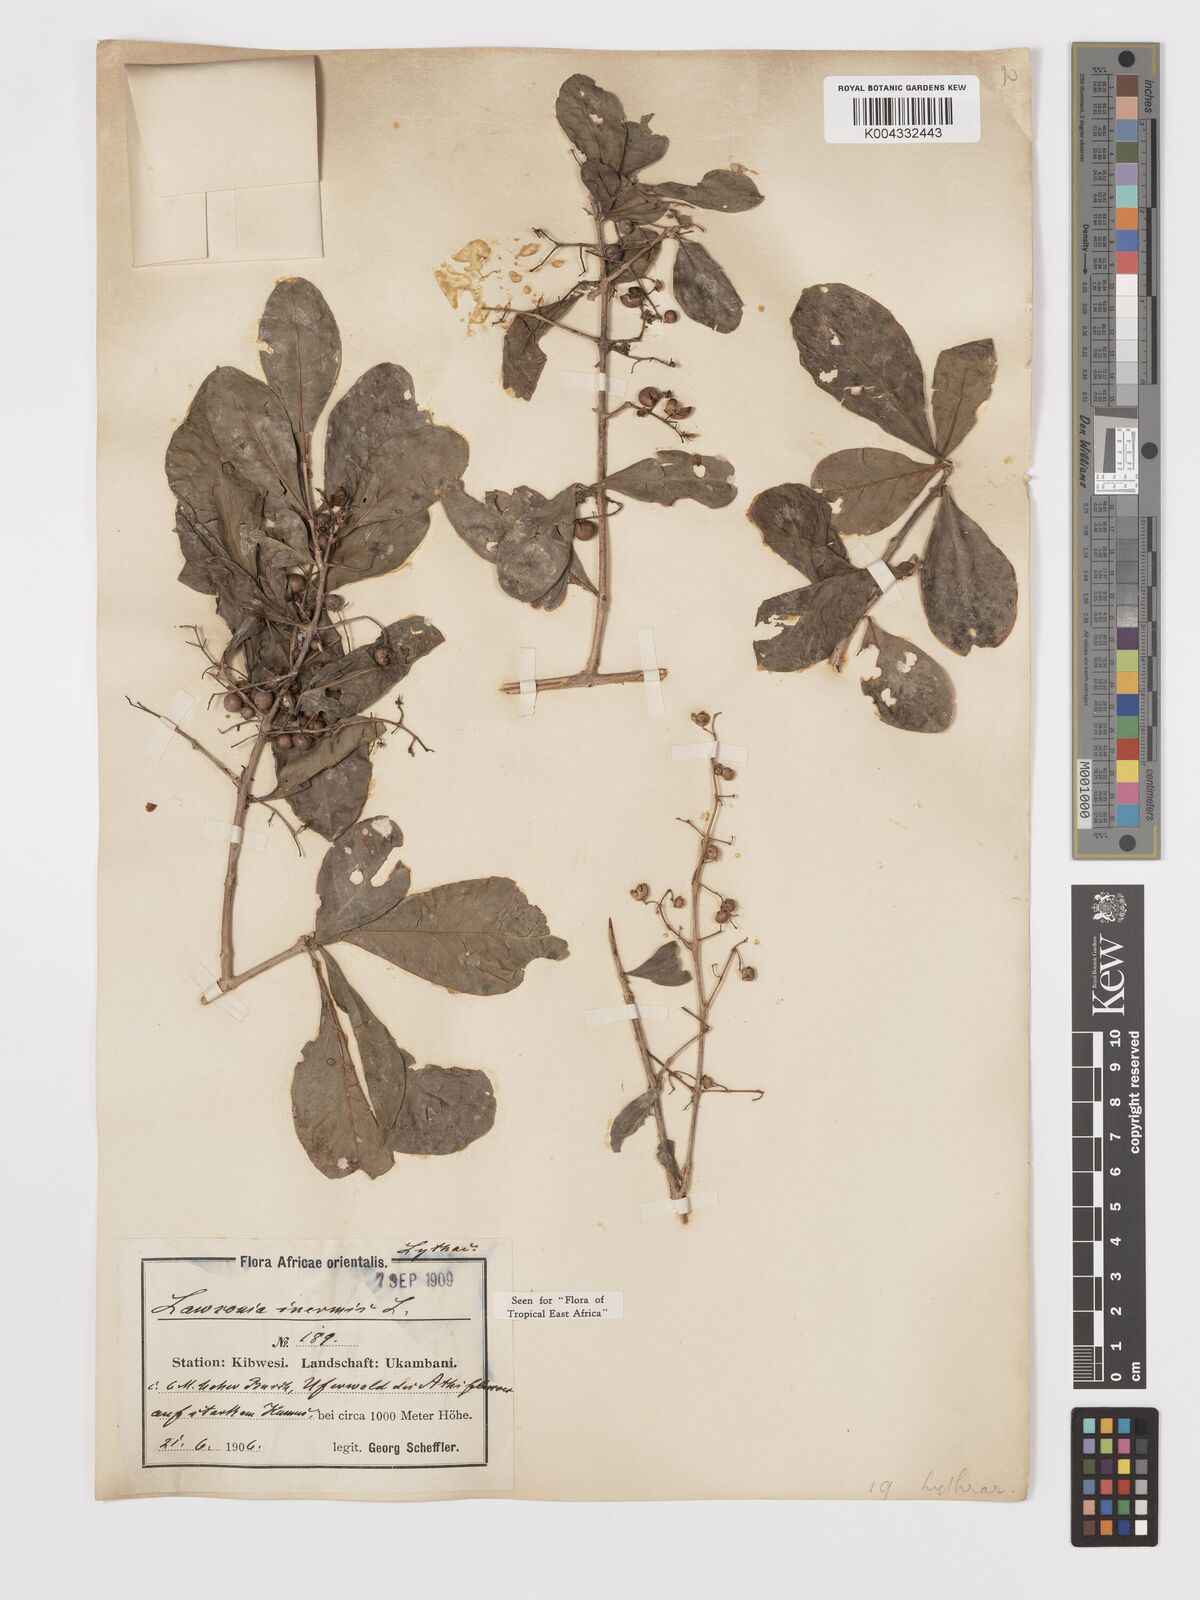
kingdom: Plantae
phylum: Tracheophyta
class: Magnoliopsida
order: Myrtales
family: Lythraceae
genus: Lawsonia
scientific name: Lawsonia inermis
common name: Henna
